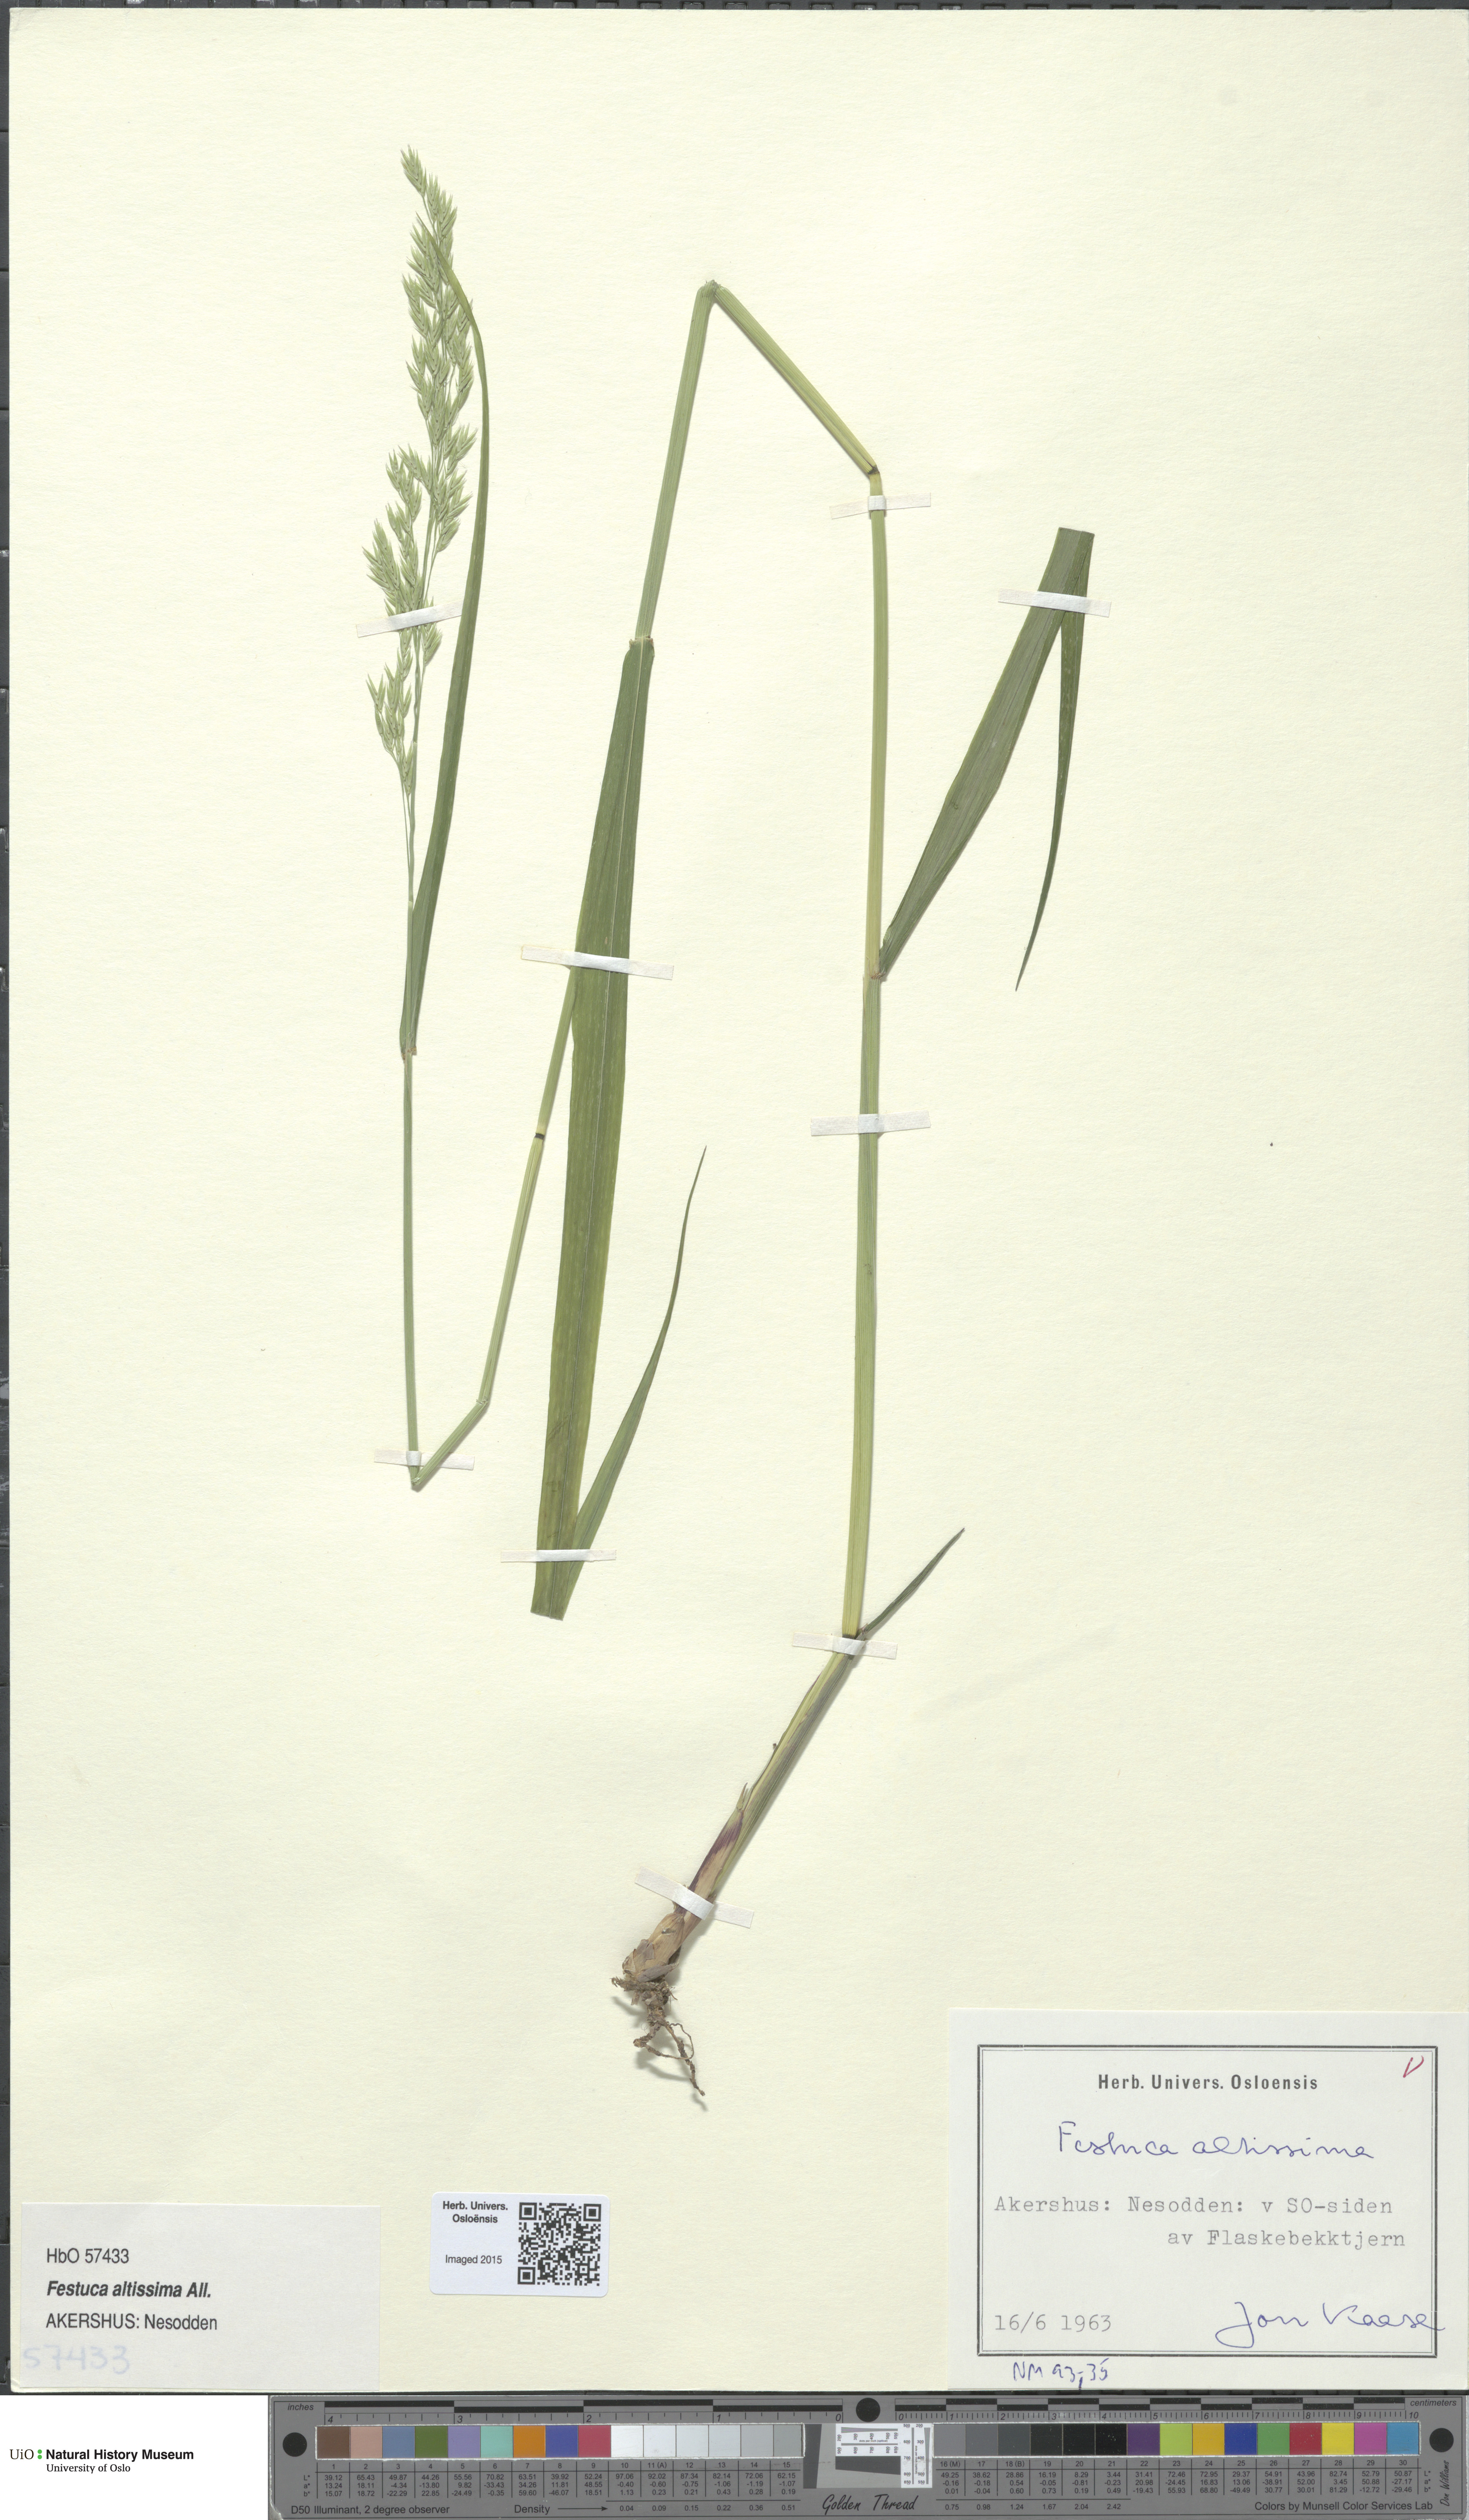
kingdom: Plantae
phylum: Tracheophyta
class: Liliopsida
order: Poales
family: Poaceae
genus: Festuca
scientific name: Festuca altissima
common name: Wood fescue
